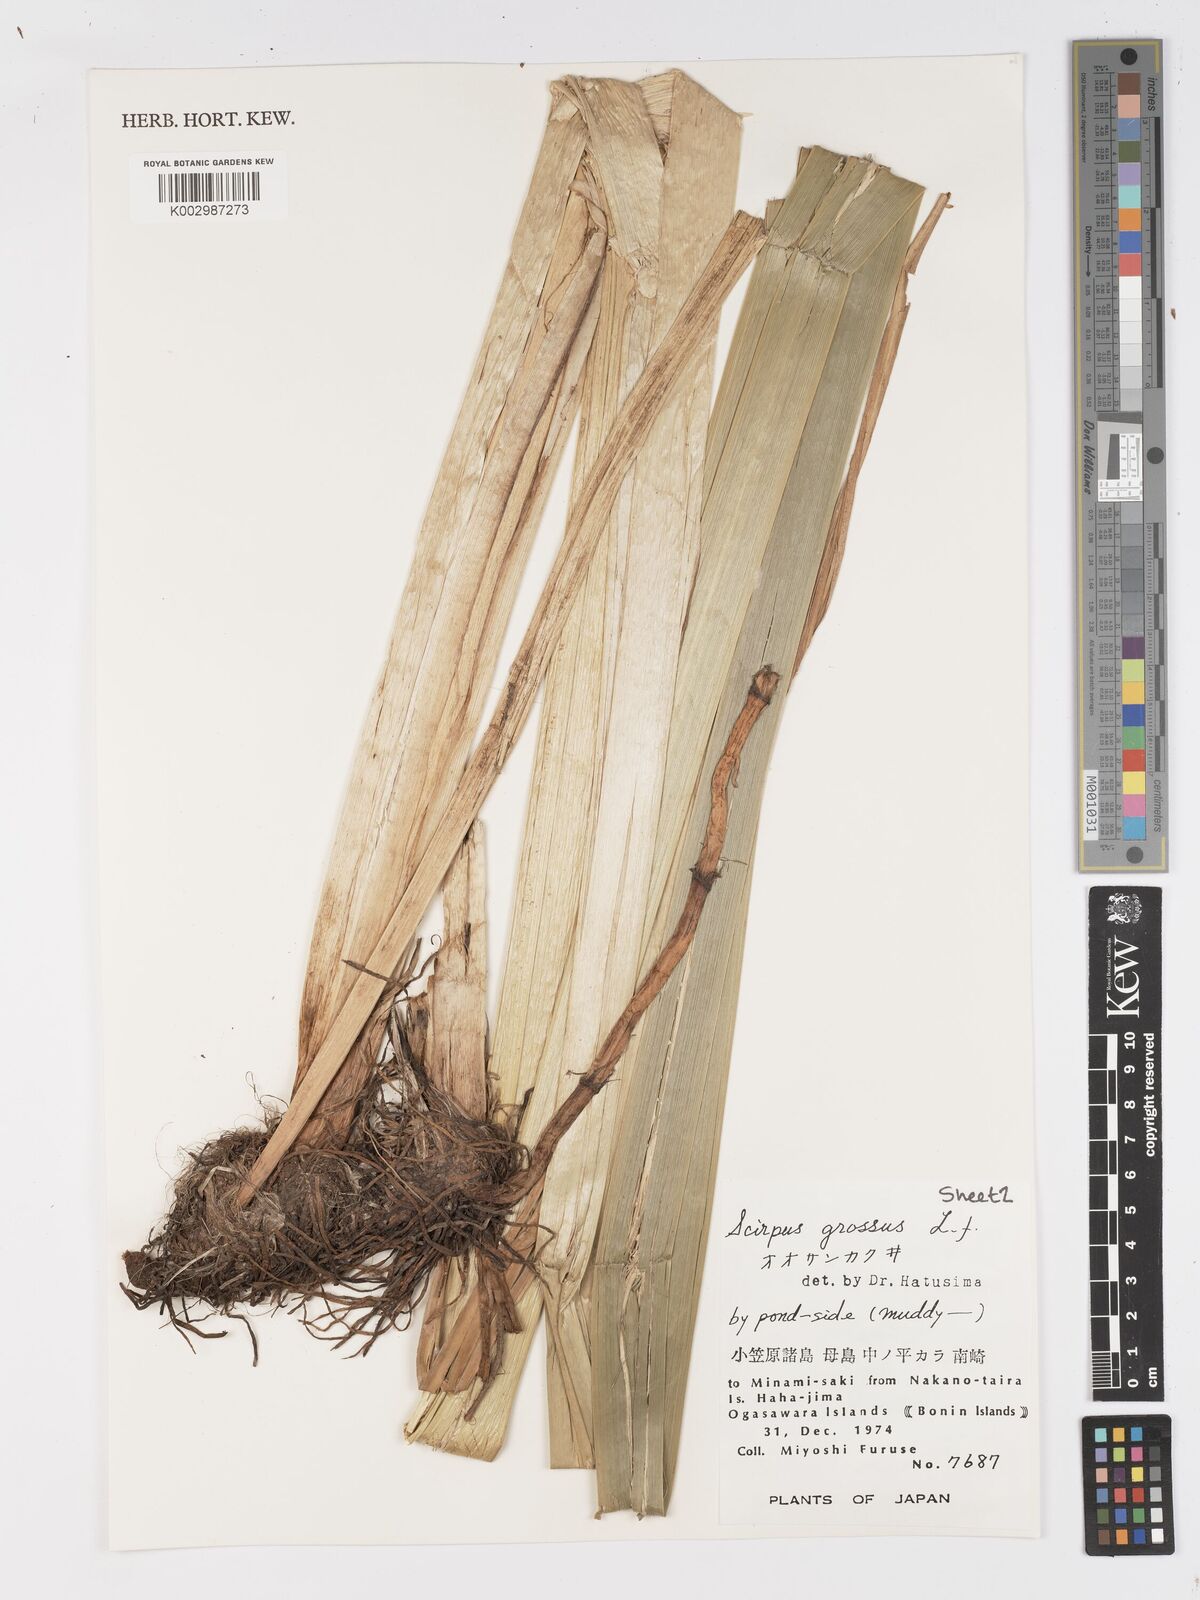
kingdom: Plantae
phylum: Tracheophyta
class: Liliopsida
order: Poales
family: Cyperaceae
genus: Actinoscirpus
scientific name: Actinoscirpus grossus
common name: Giant bur rush
